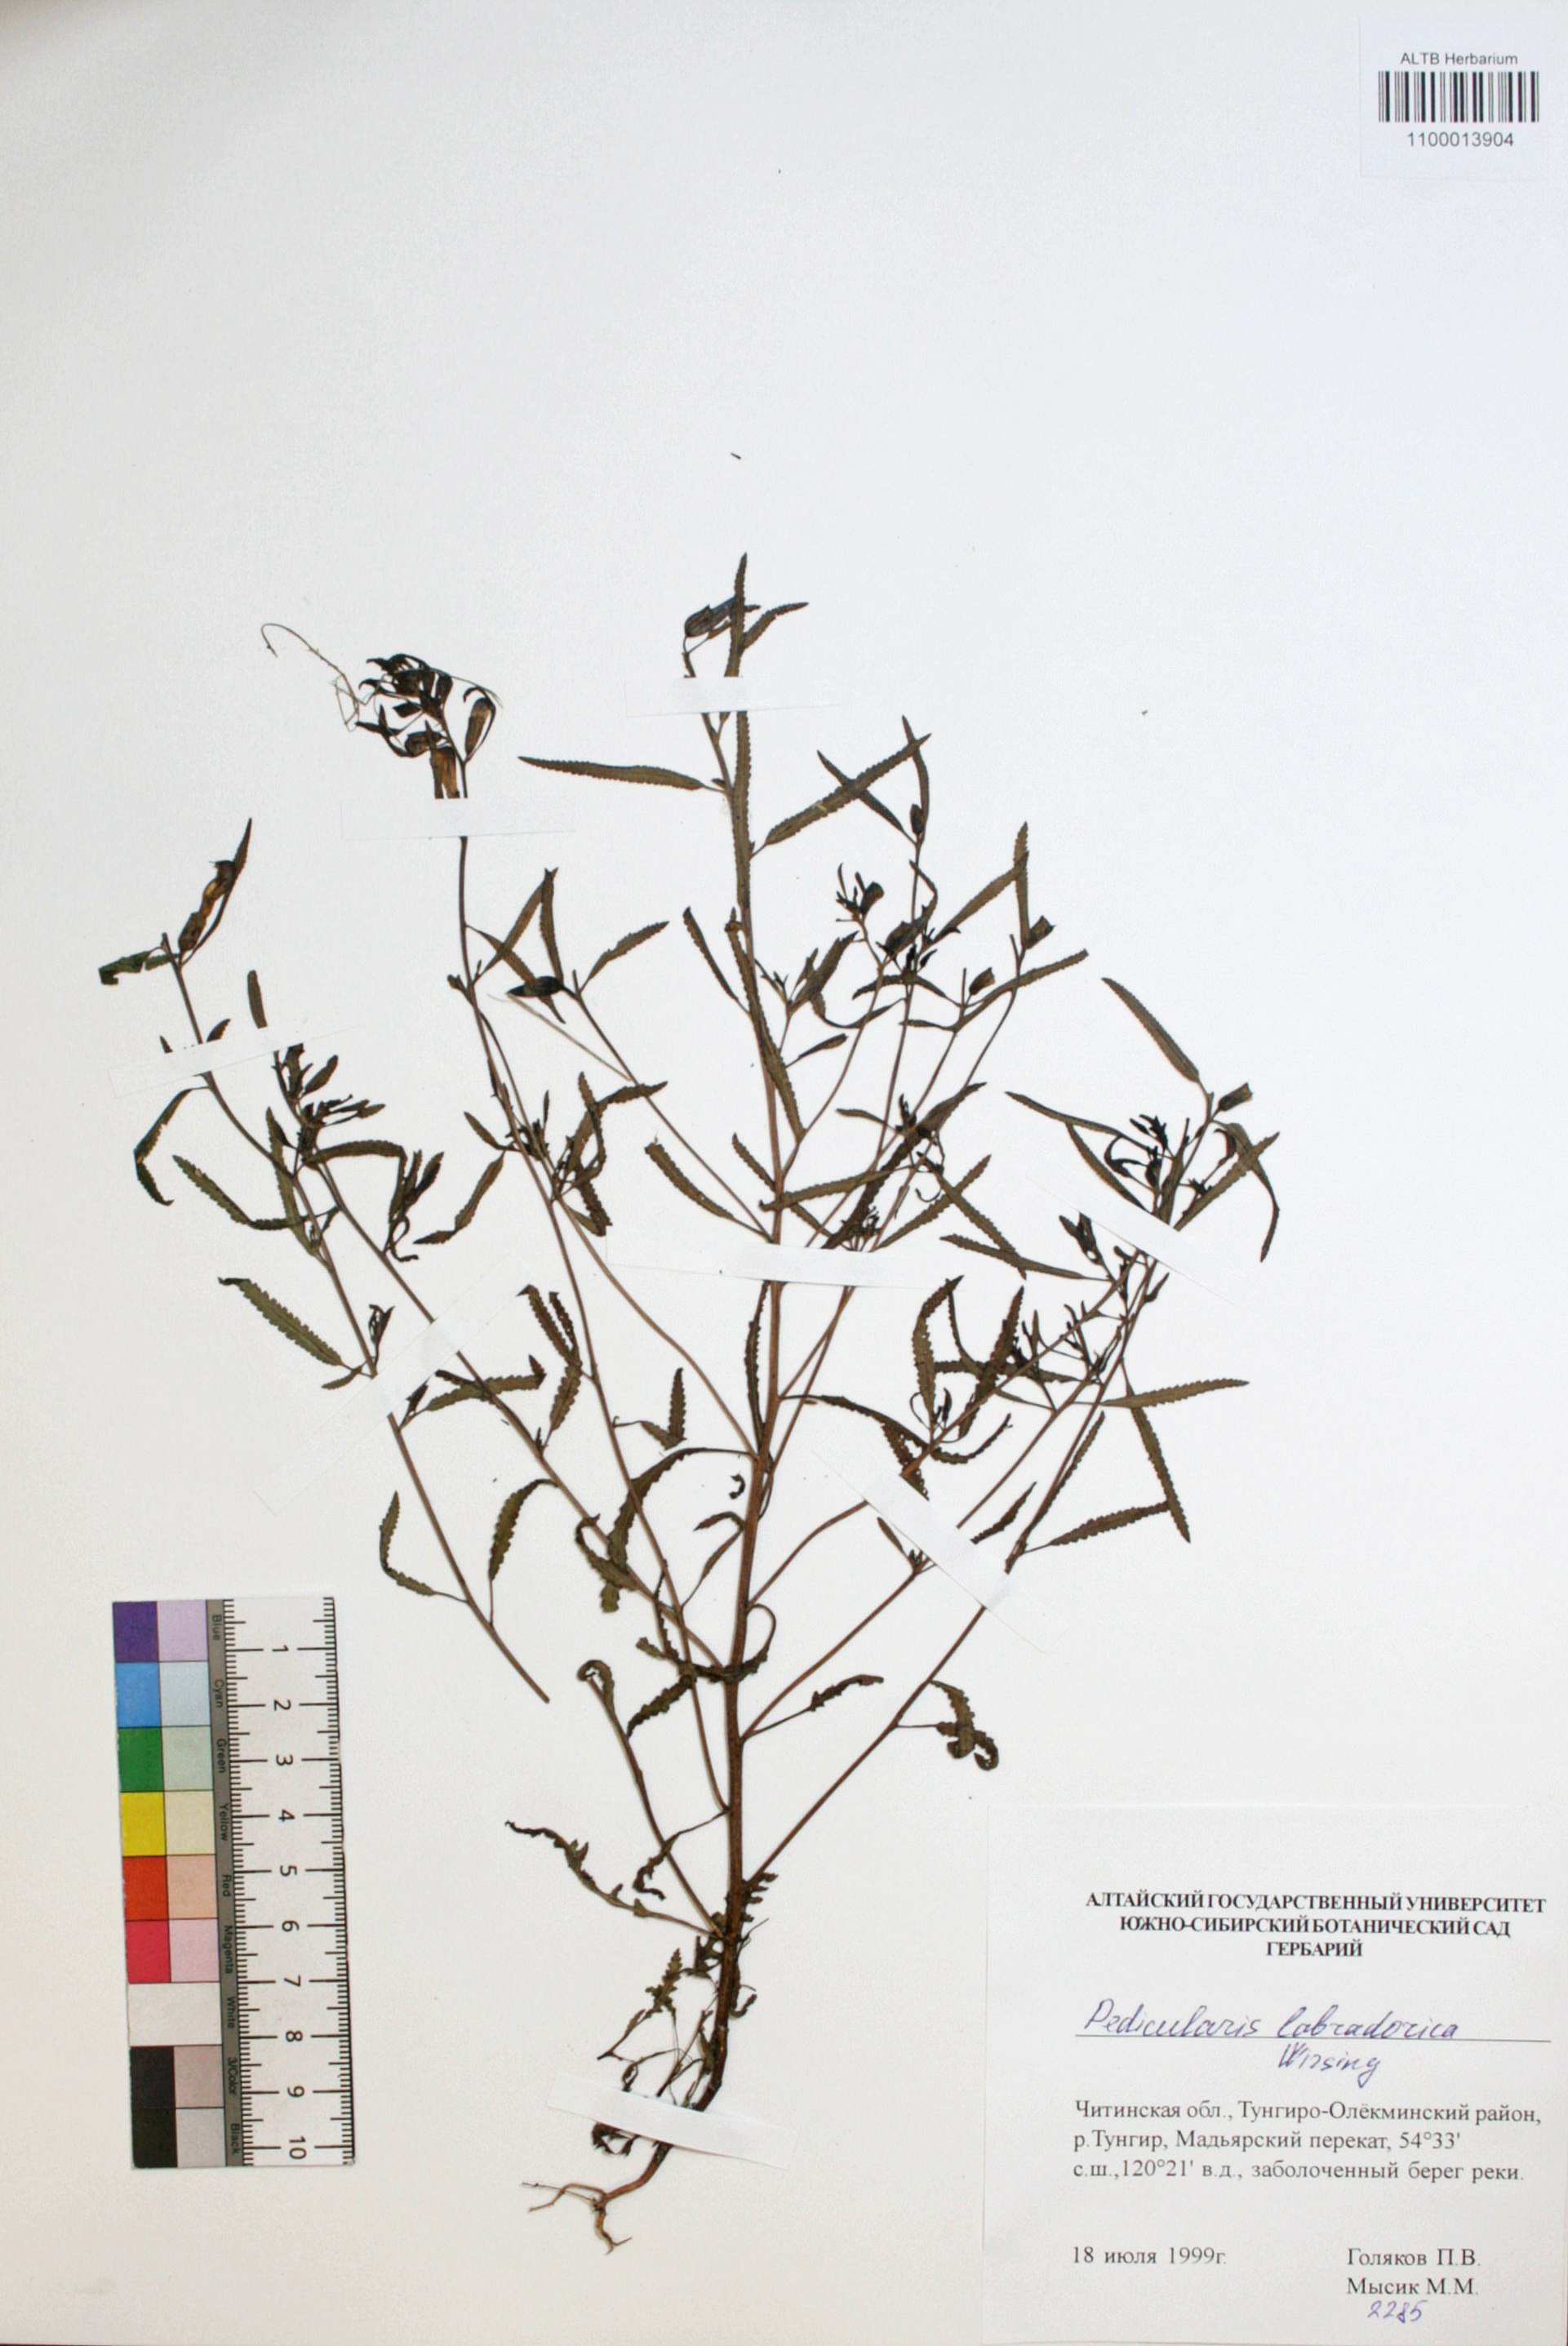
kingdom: Plantae
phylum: Tracheophyta
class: Magnoliopsida
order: Lamiales
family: Orobanchaceae
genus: Pedicularis
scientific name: Pedicularis labradorica
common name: Labrador lousewort
